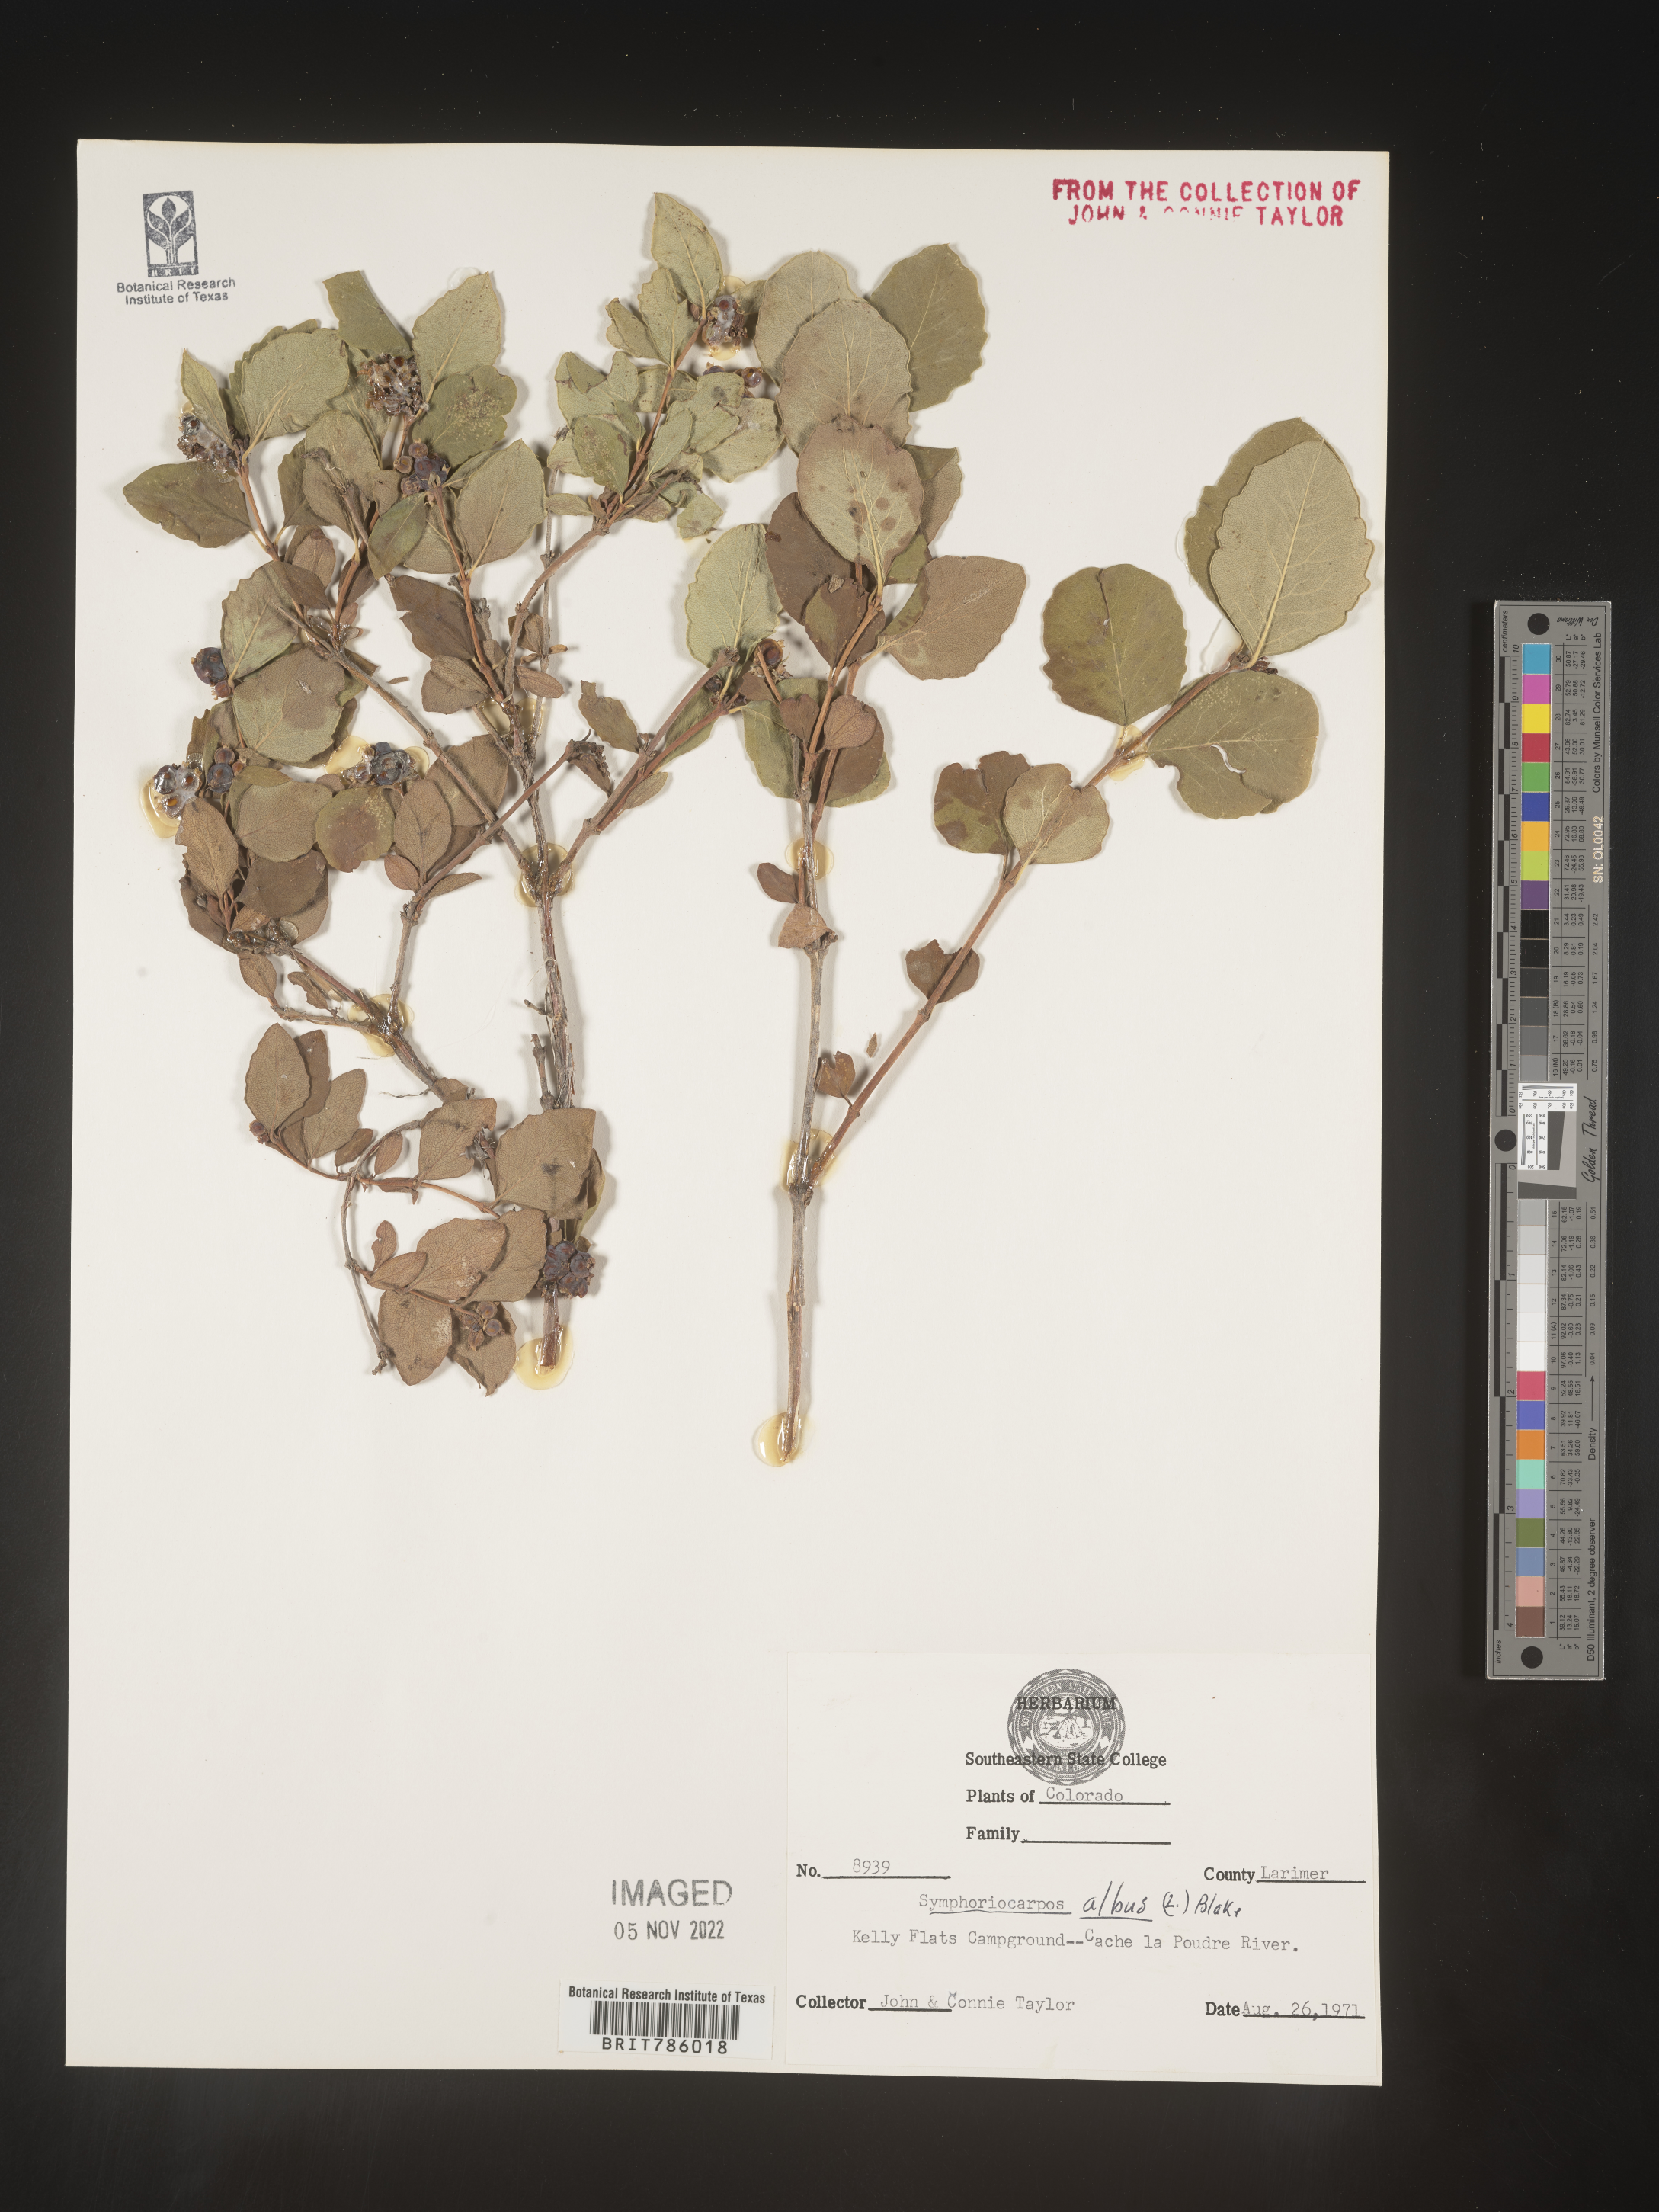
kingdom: Plantae
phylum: Tracheophyta
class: Magnoliopsida
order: Dipsacales
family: Caprifoliaceae
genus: Symphoricarpos
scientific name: Symphoricarpos albus
